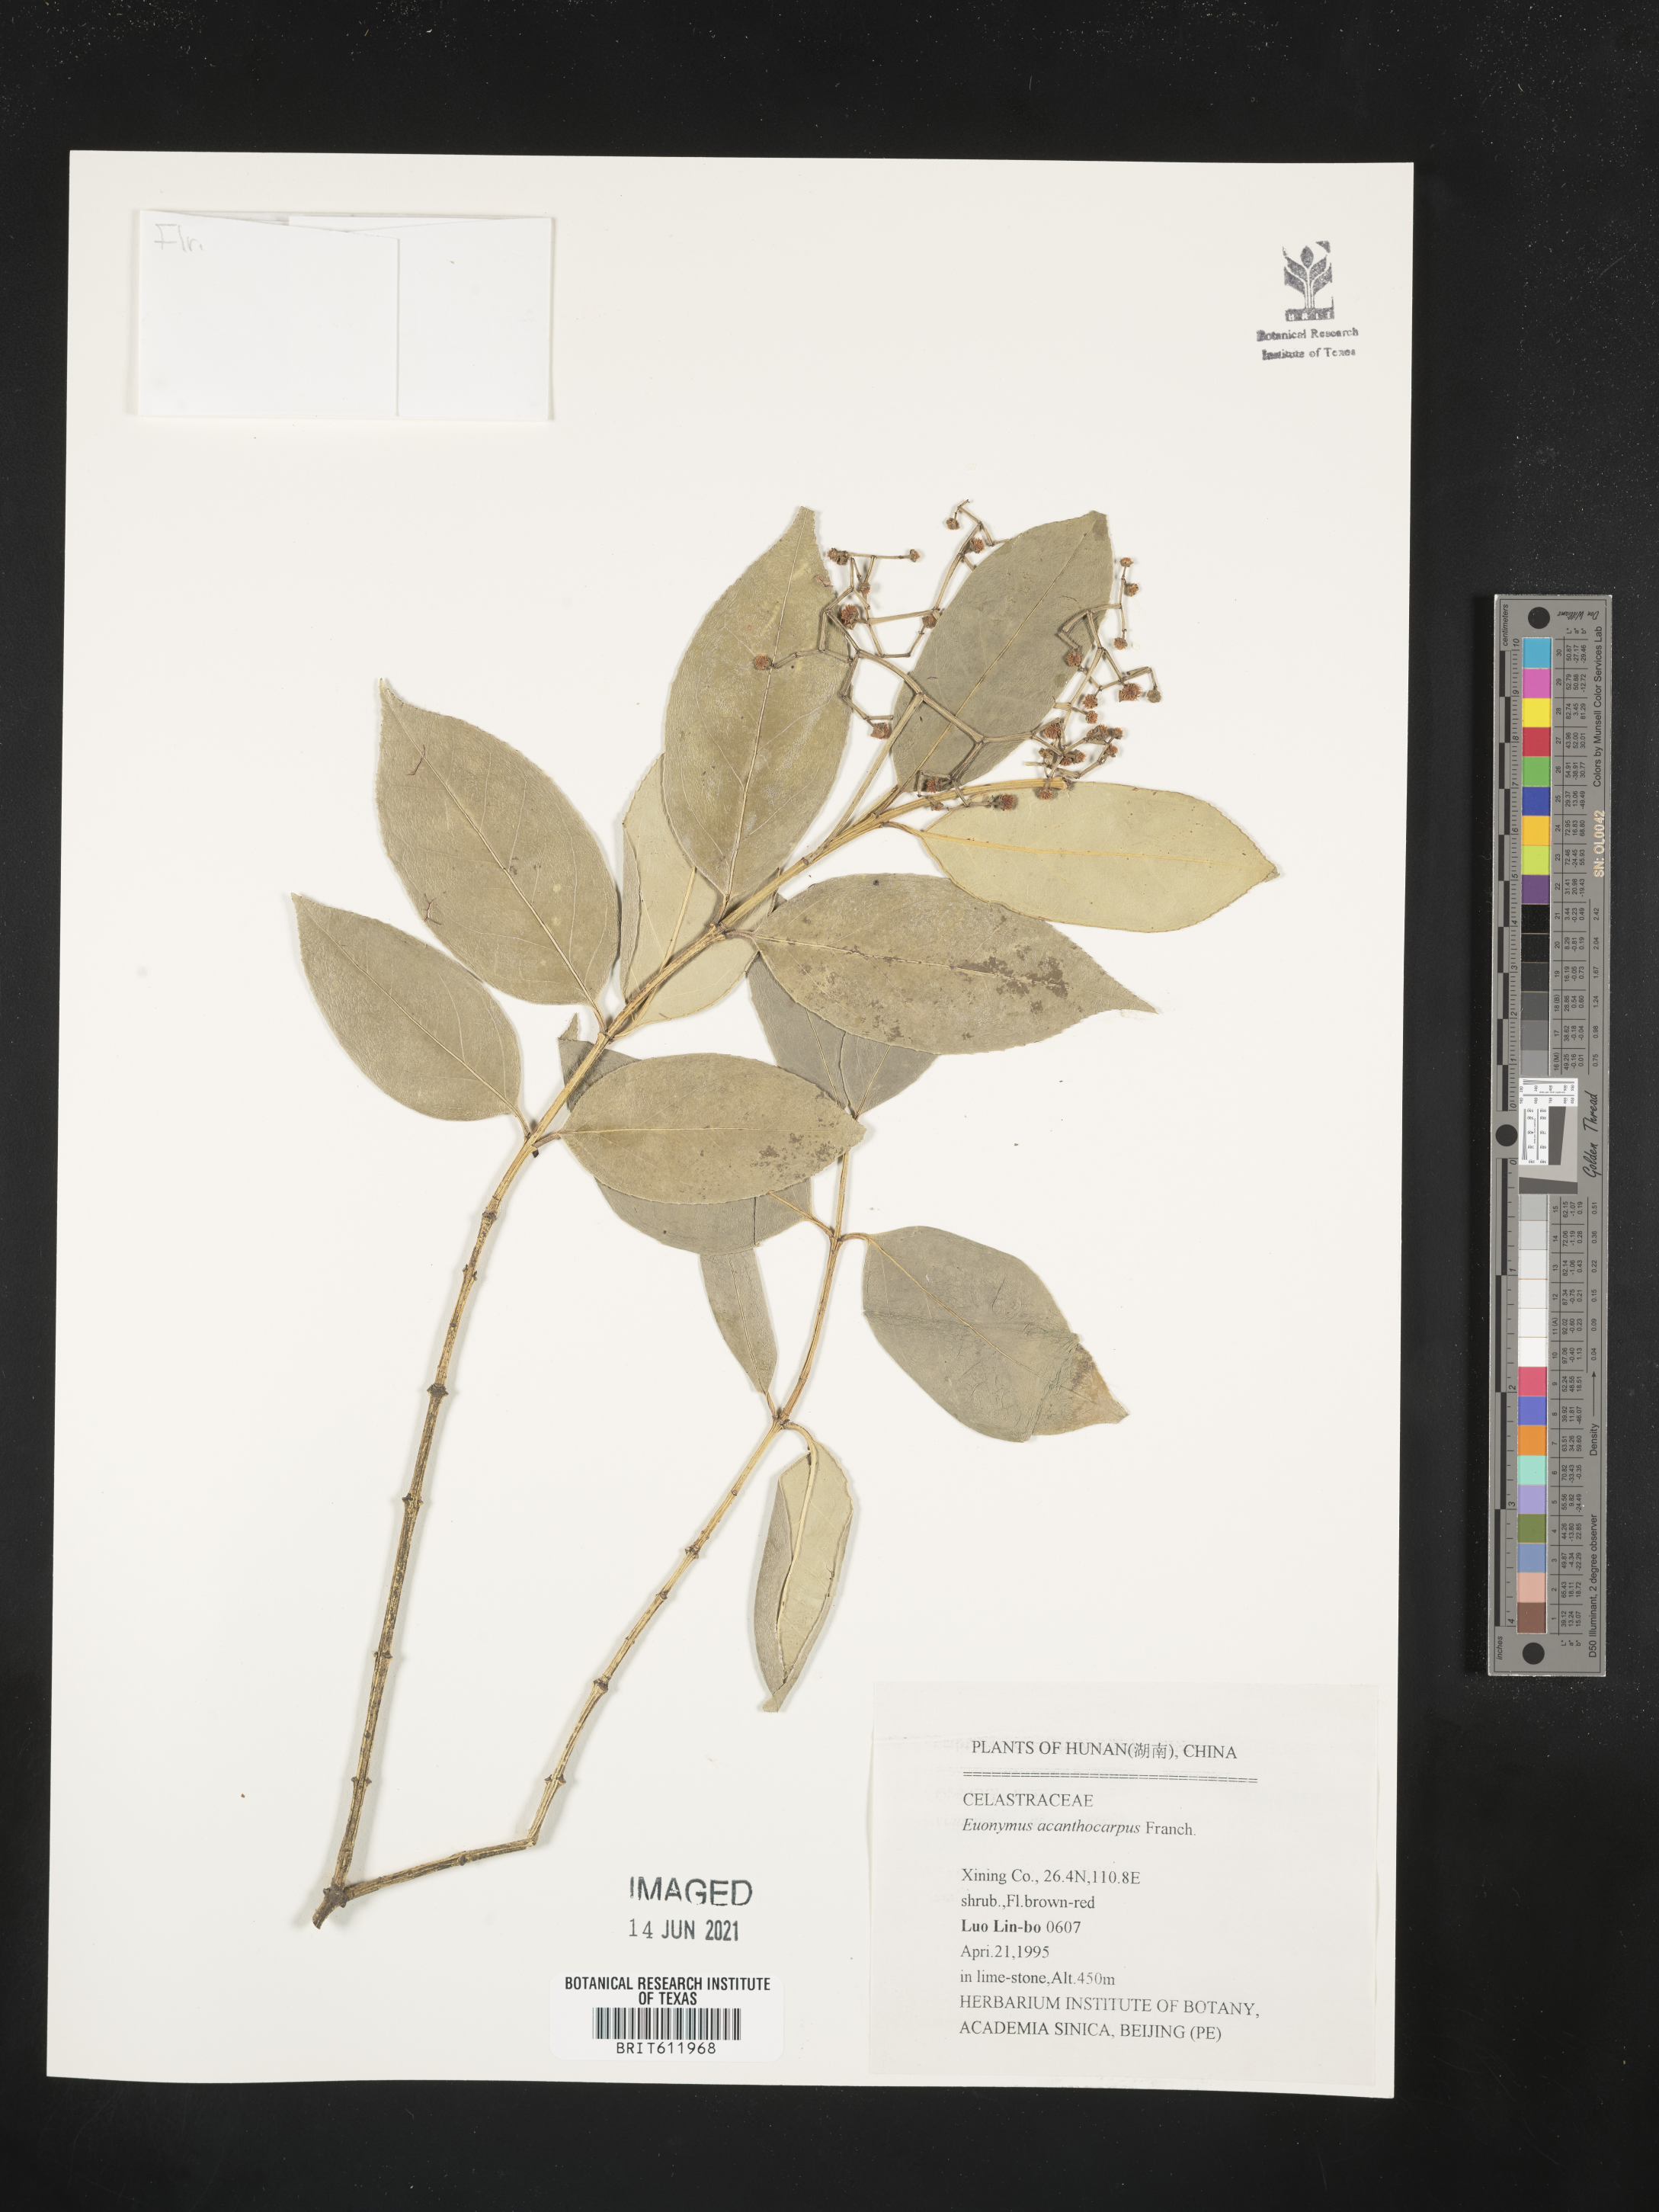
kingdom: Plantae
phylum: Tracheophyta
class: Magnoliopsida
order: Celastrales
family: Celastraceae
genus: Euonymus
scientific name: Euonymus acanthocarpus
